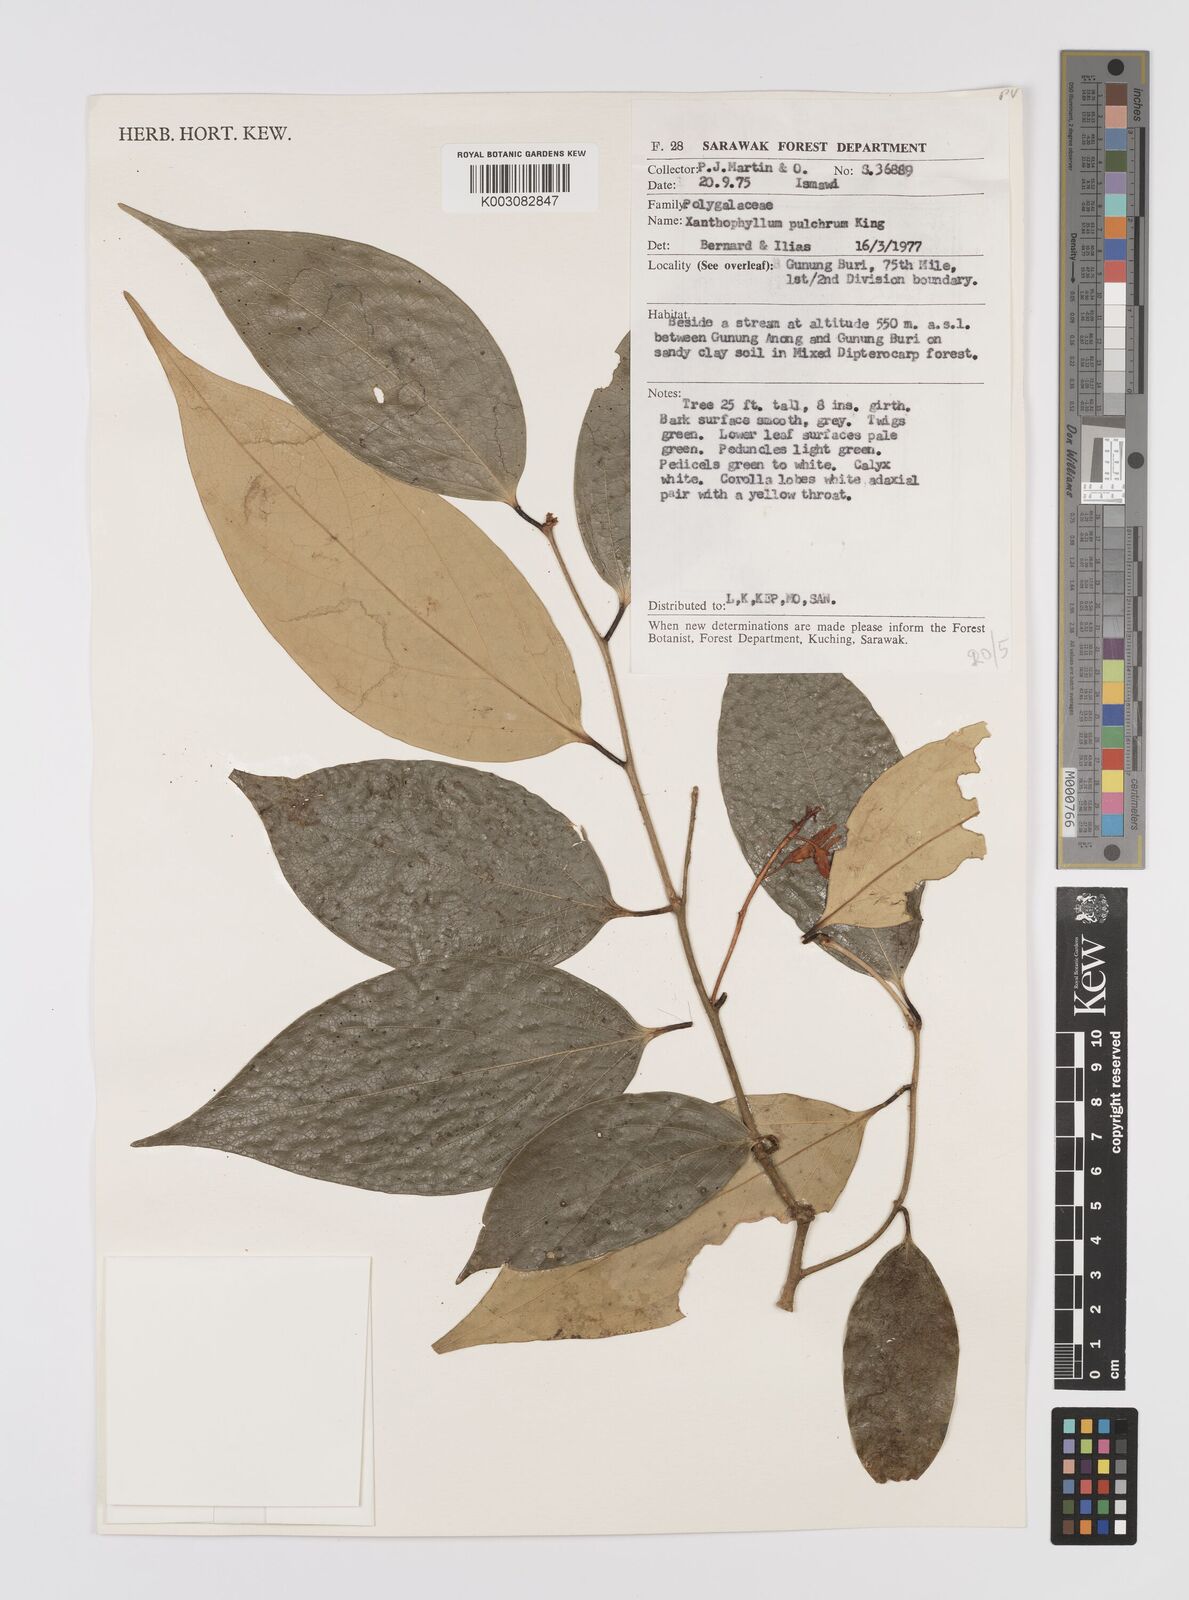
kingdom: Plantae
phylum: Tracheophyta
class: Magnoliopsida
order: Fabales
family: Polygalaceae
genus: Xanthophyllum
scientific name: Xanthophyllum pulchrum
